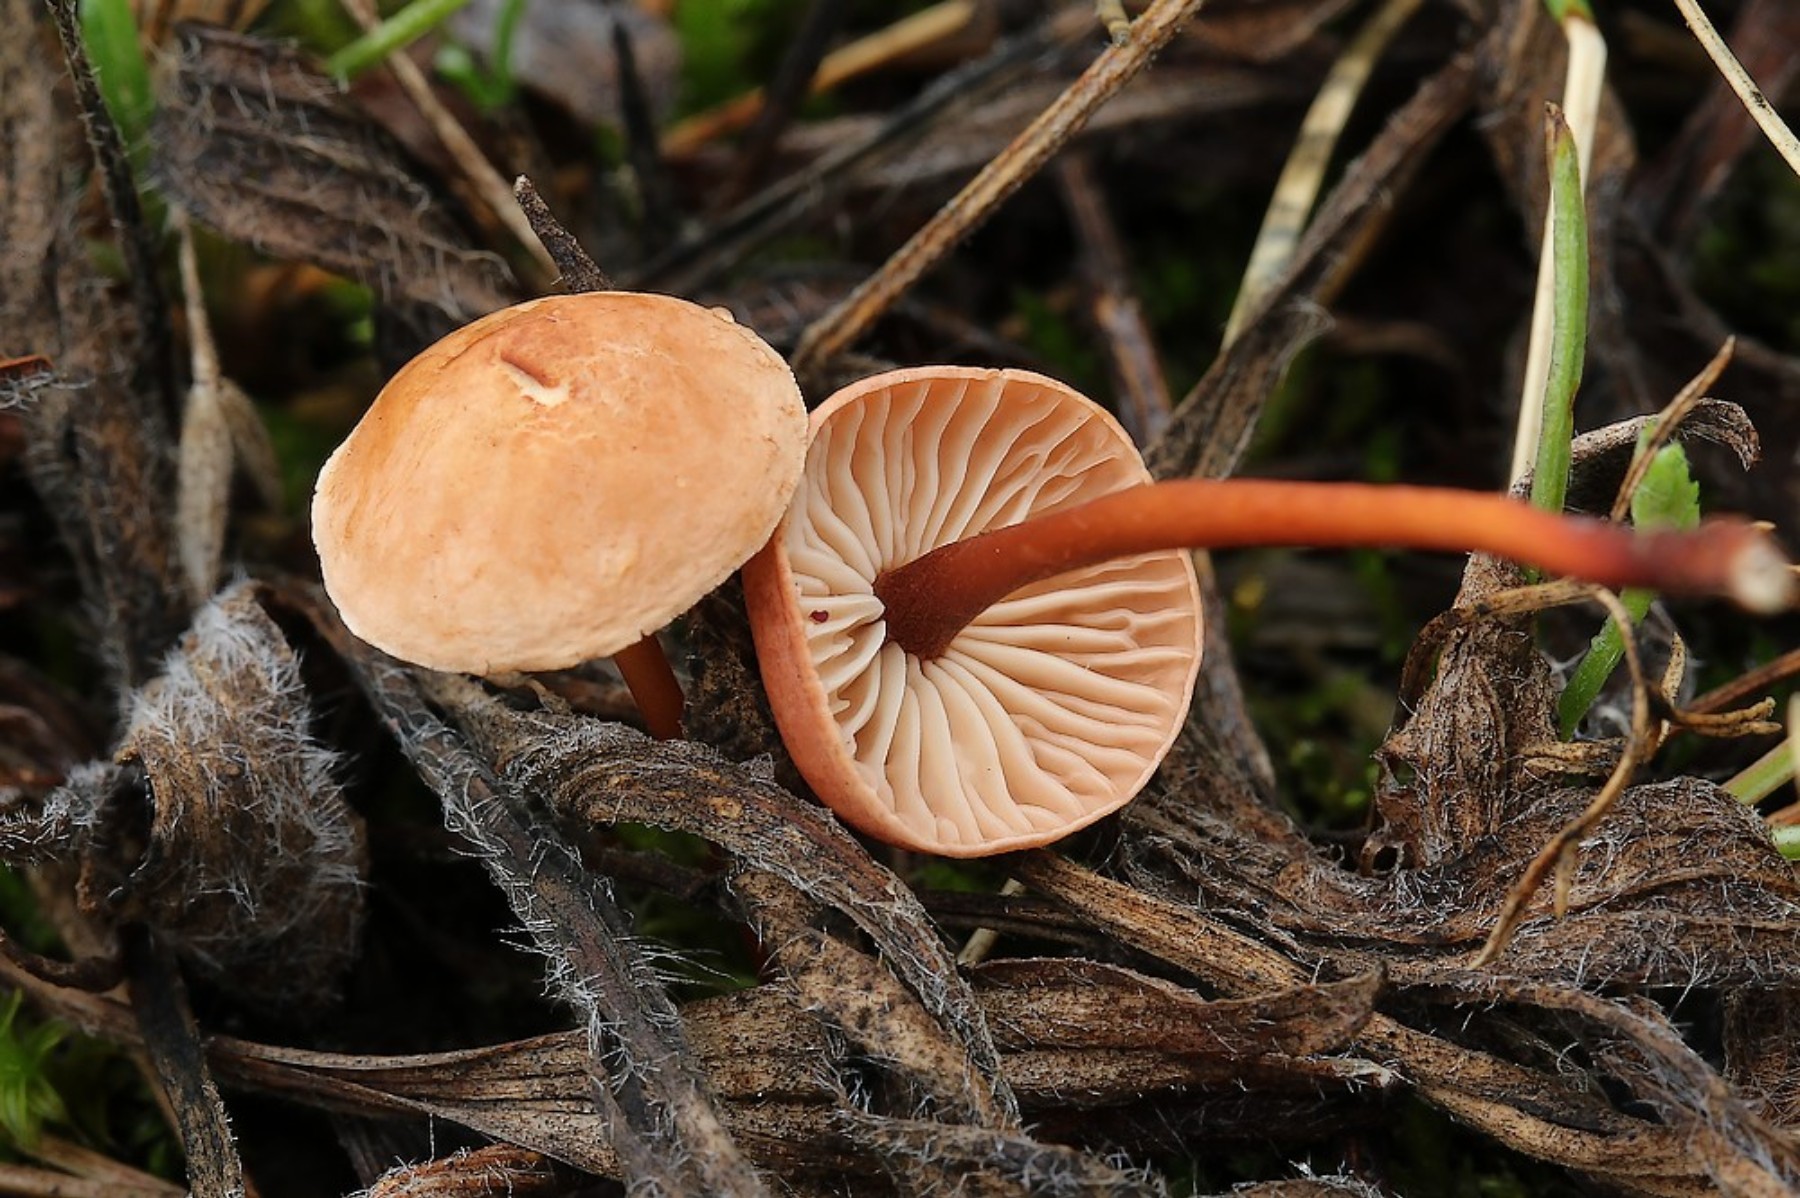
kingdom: Fungi
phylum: Basidiomycota
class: Agaricomycetes
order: Agaricales
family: Omphalotaceae
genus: Mycetinis
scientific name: Mycetinis scorodonius
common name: lille løghat
